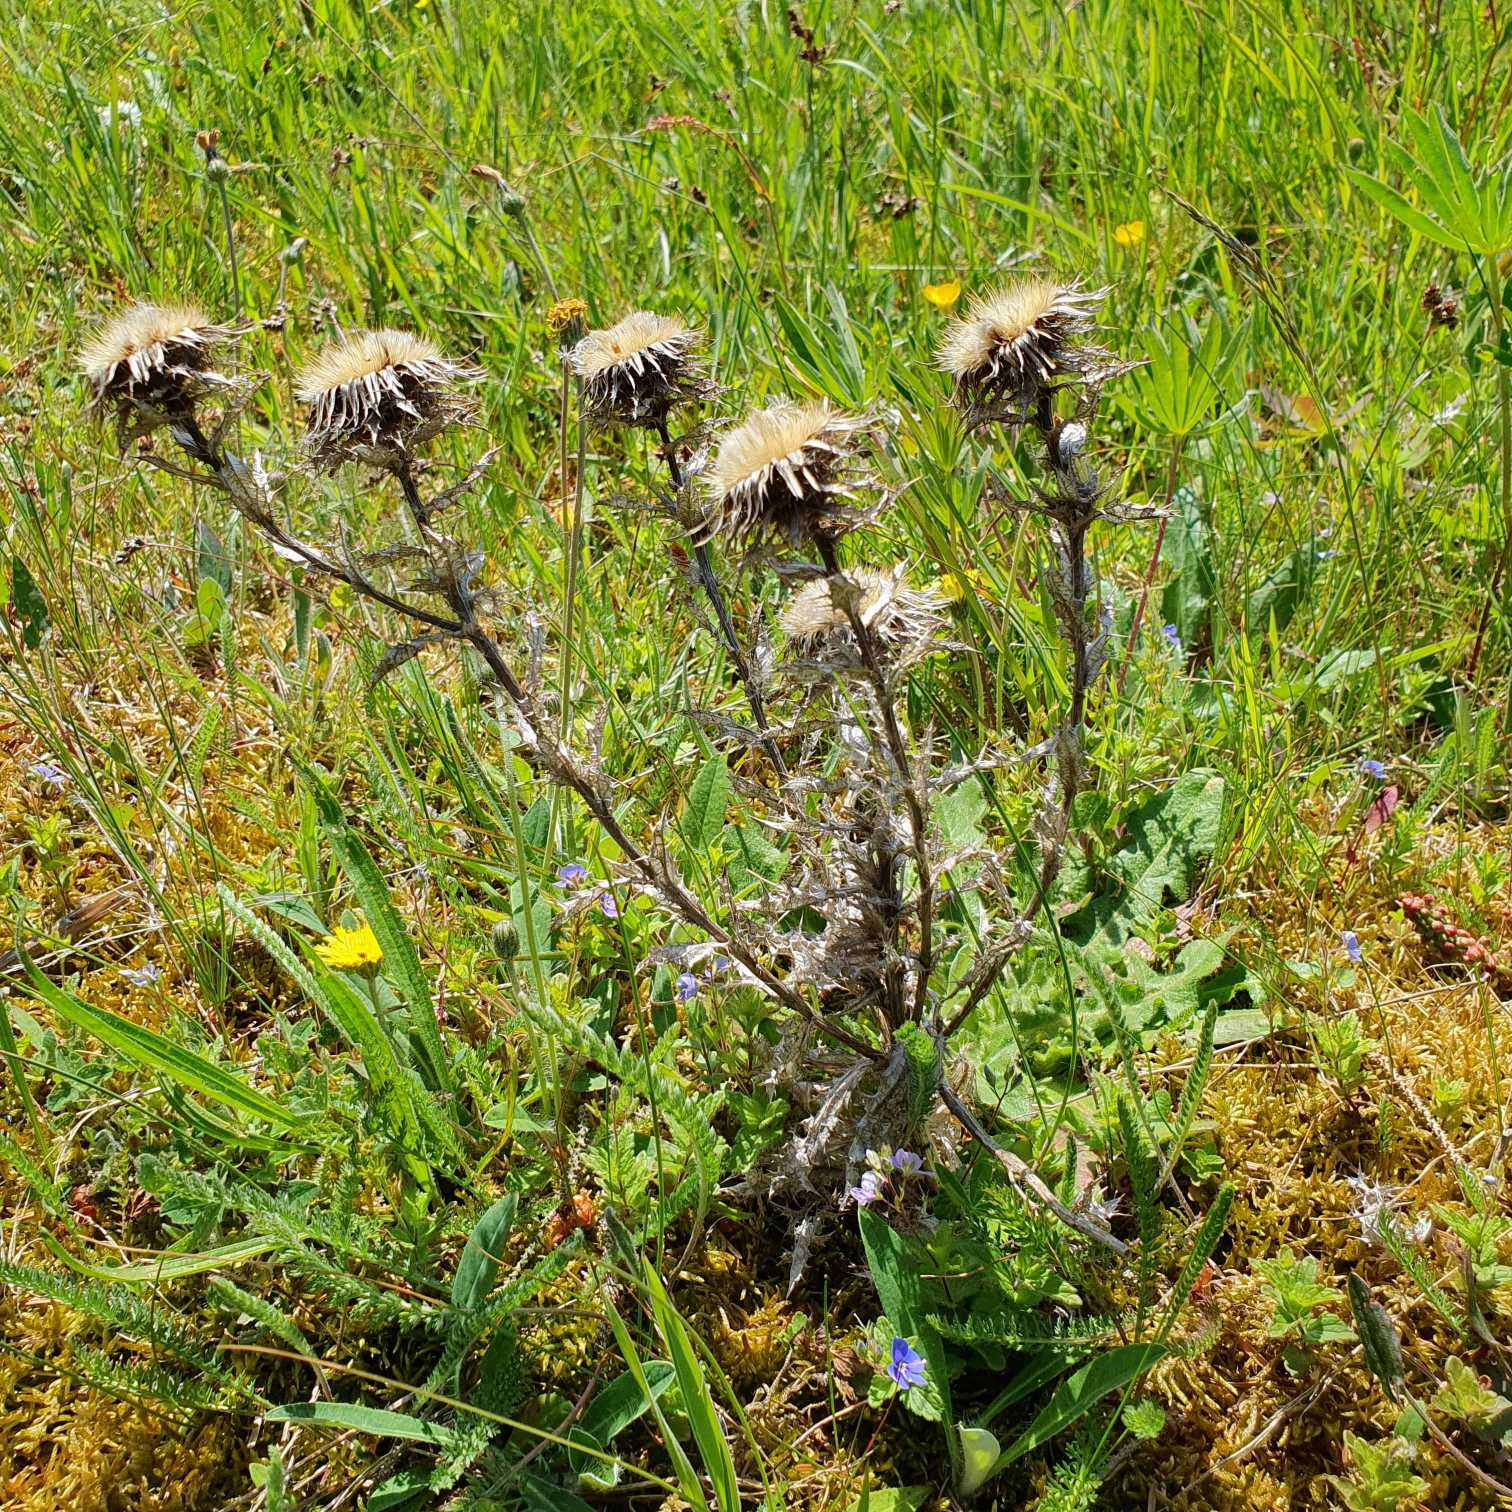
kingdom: Plantae
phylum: Tracheophyta
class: Magnoliopsida
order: Asterales
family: Asteraceae
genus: Carlina
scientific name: Carlina vulgaris
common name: Bakketidsel
